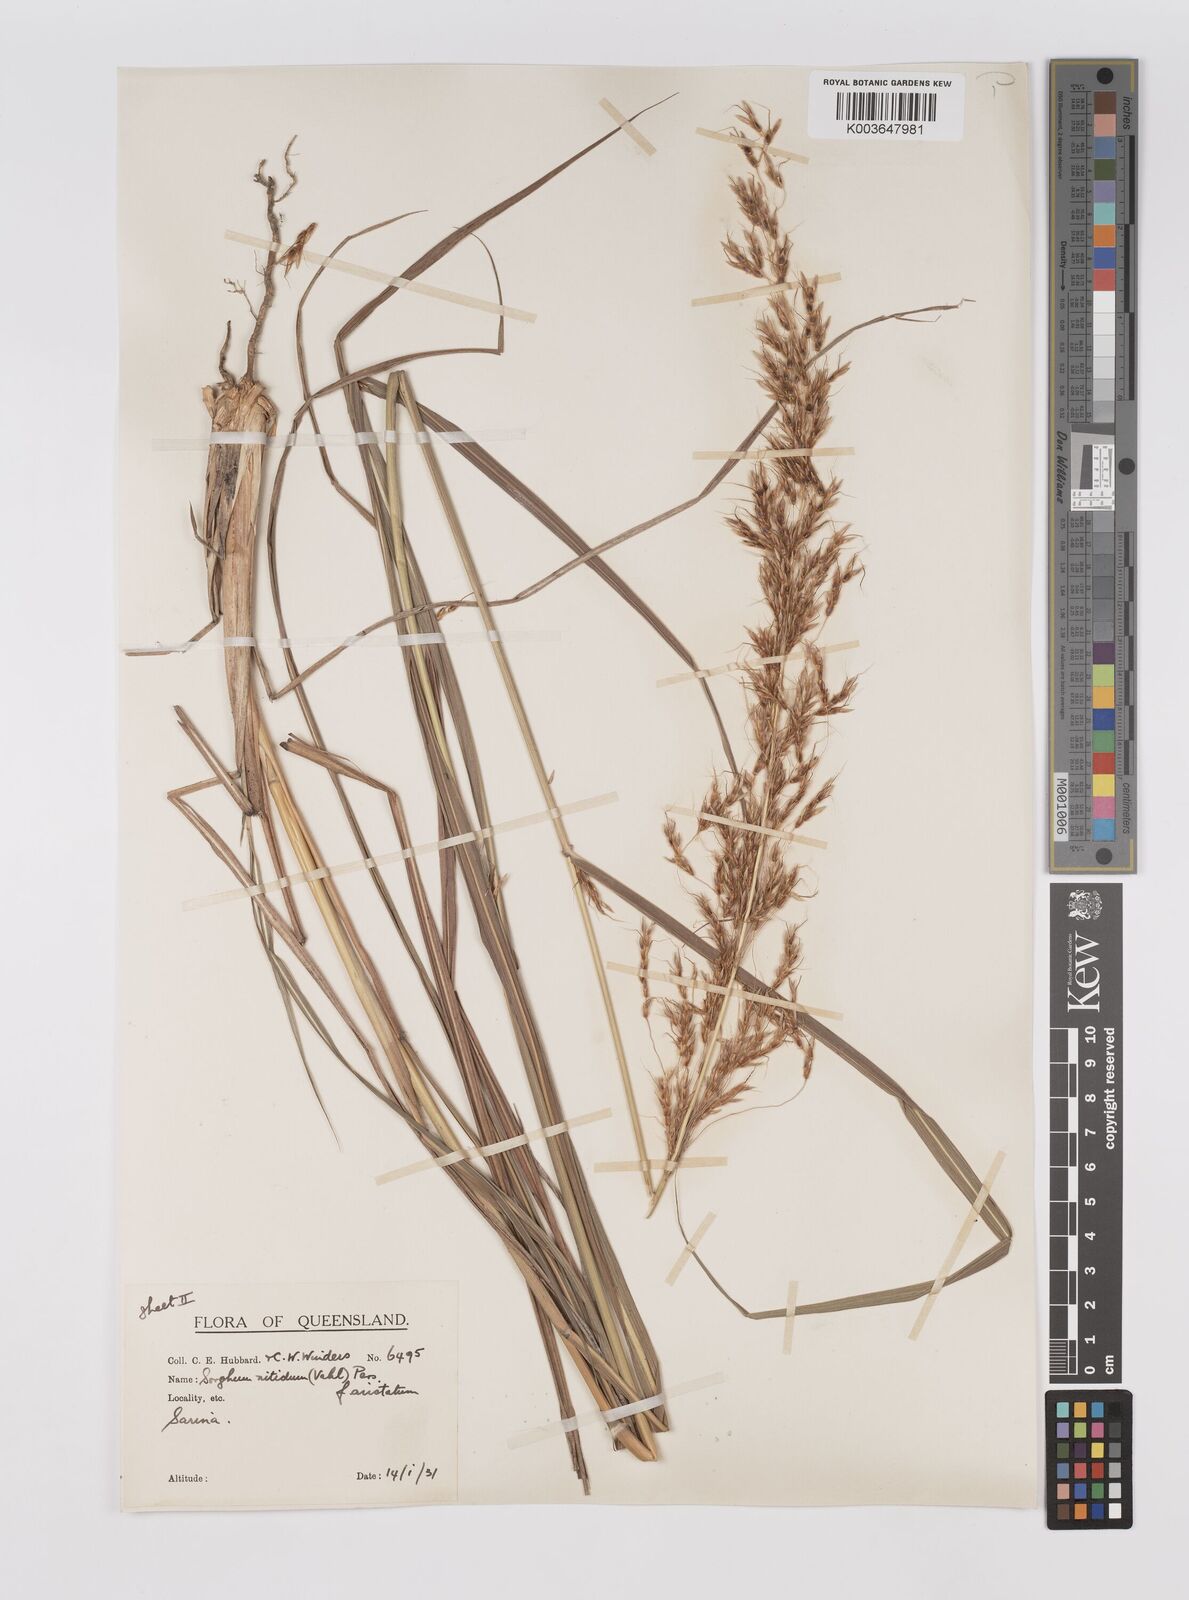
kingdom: Plantae
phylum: Tracheophyta
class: Liliopsida
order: Poales
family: Poaceae
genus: Sorghum
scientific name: Sorghum nitidum
